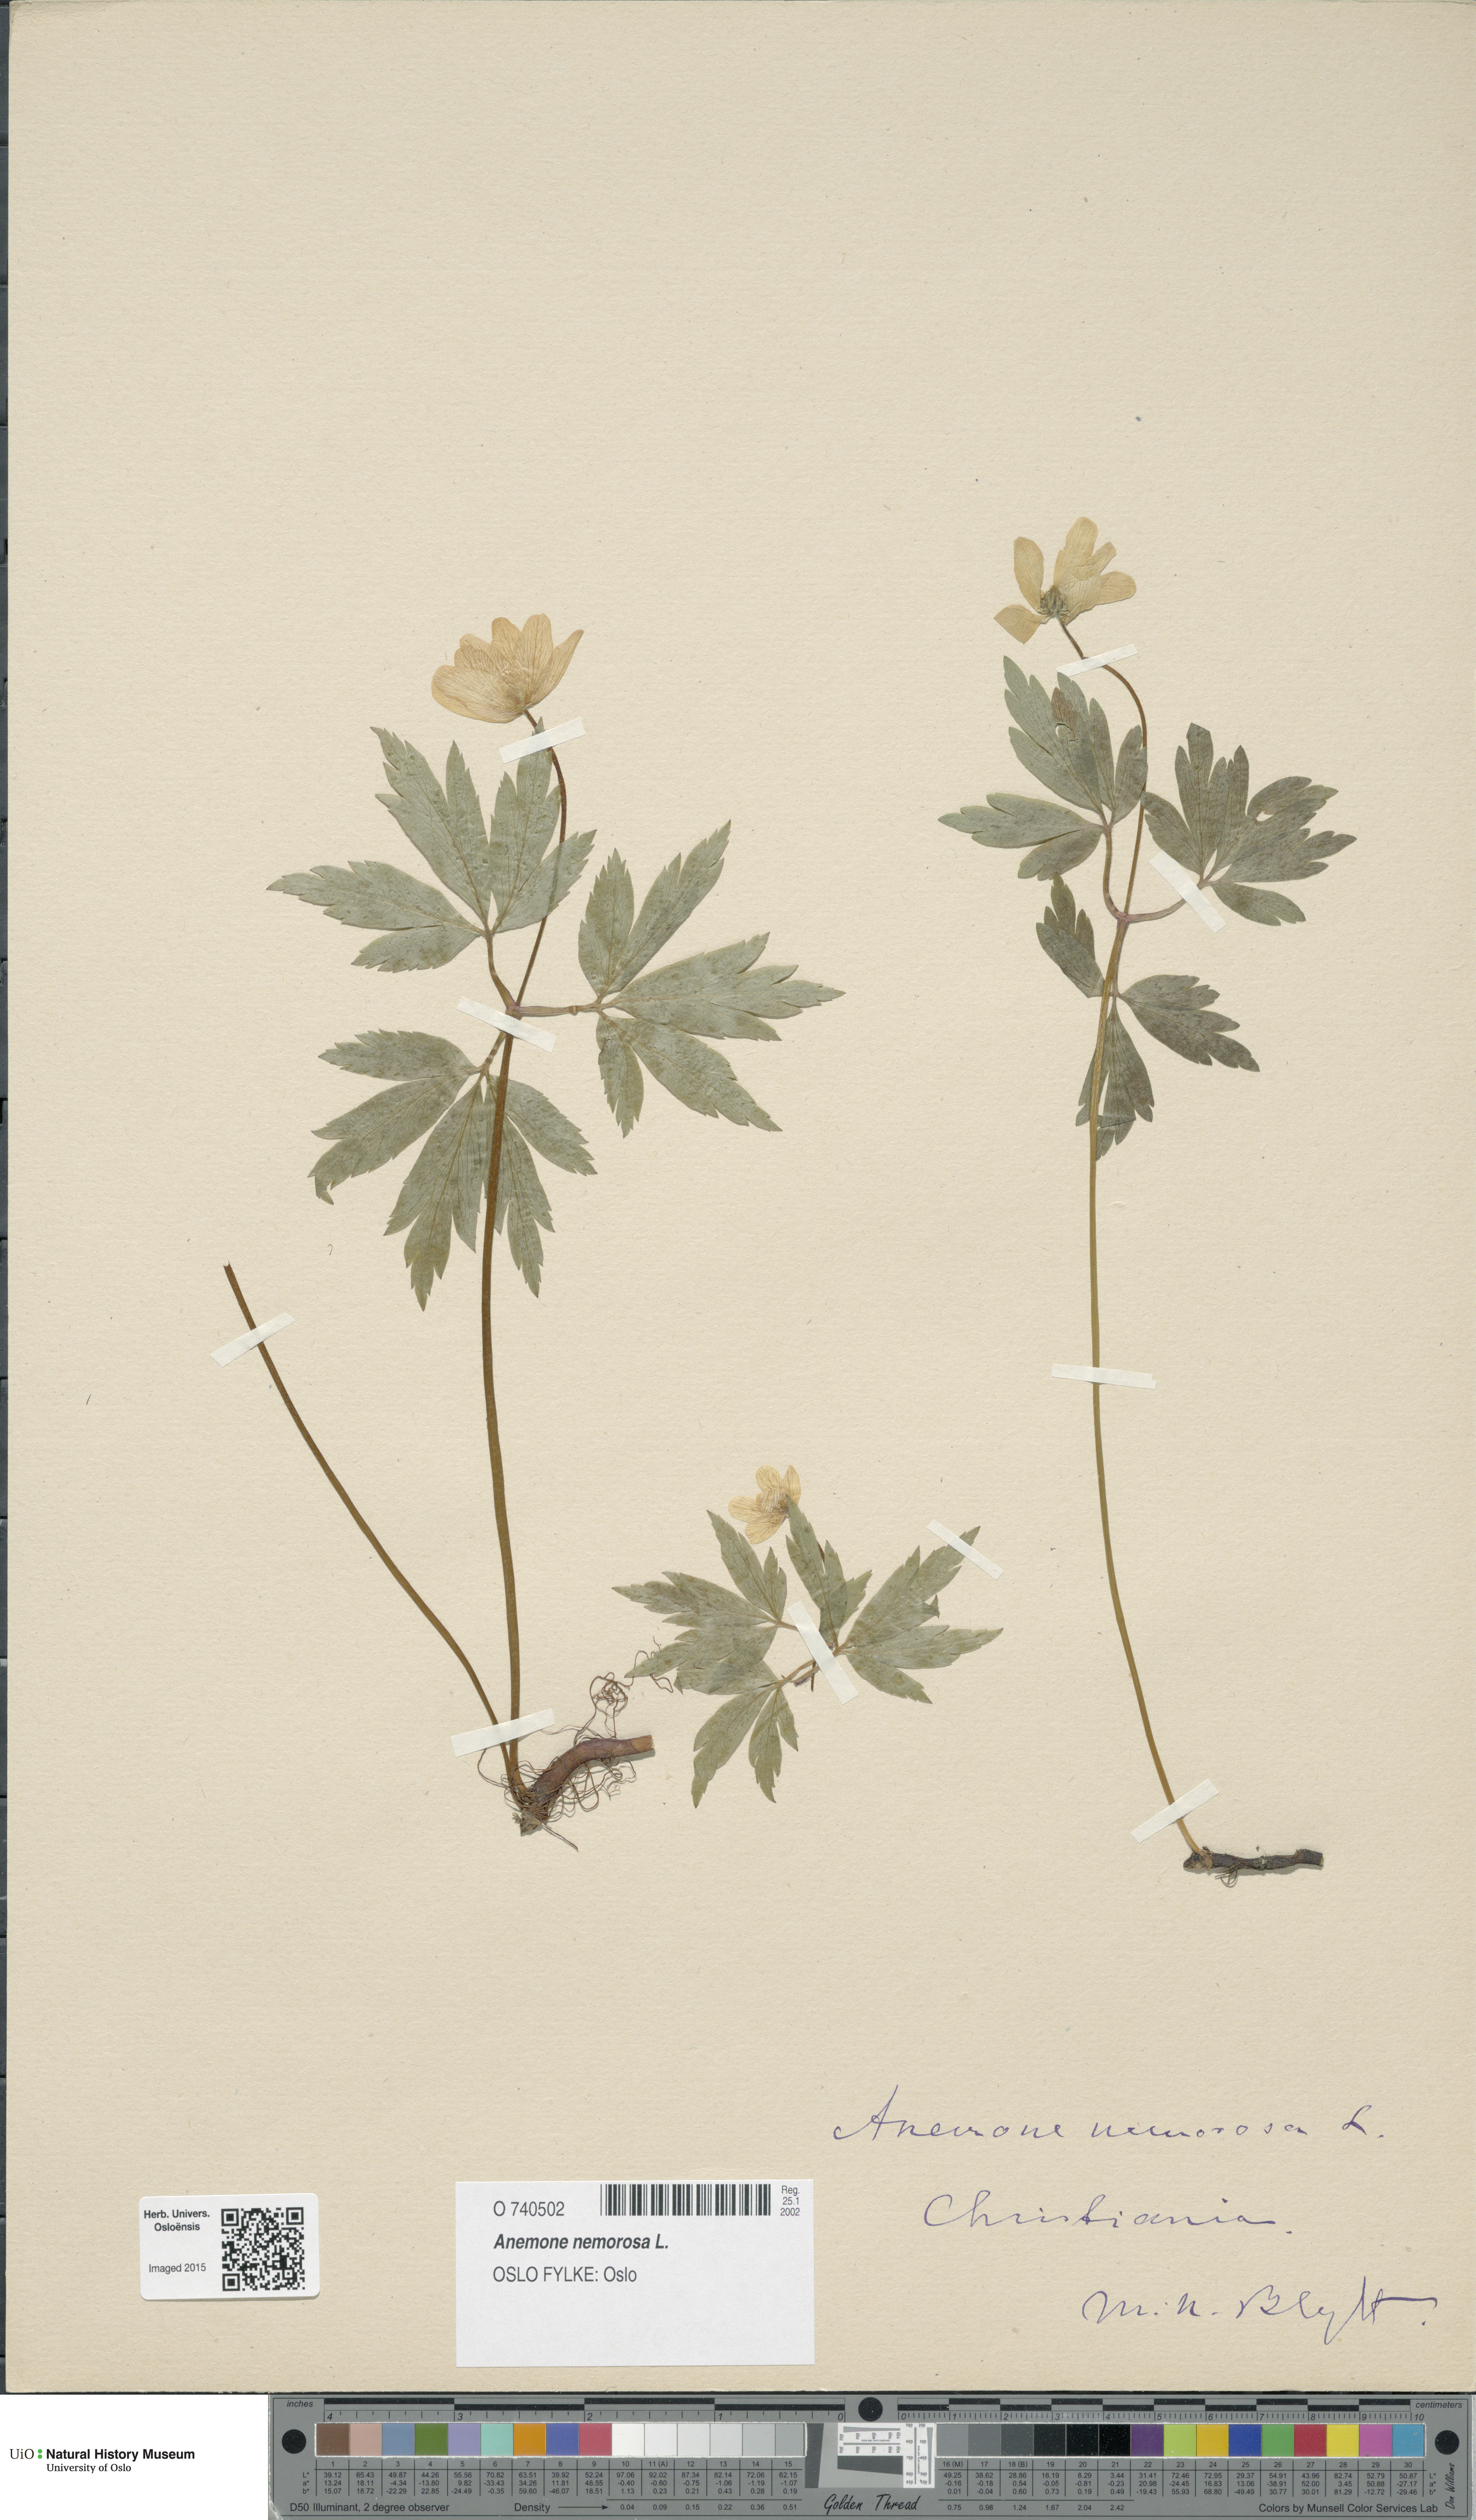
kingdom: Plantae
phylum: Tracheophyta
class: Magnoliopsida
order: Ranunculales
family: Ranunculaceae
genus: Anemone
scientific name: Anemone nemorosa
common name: Wood anemone
